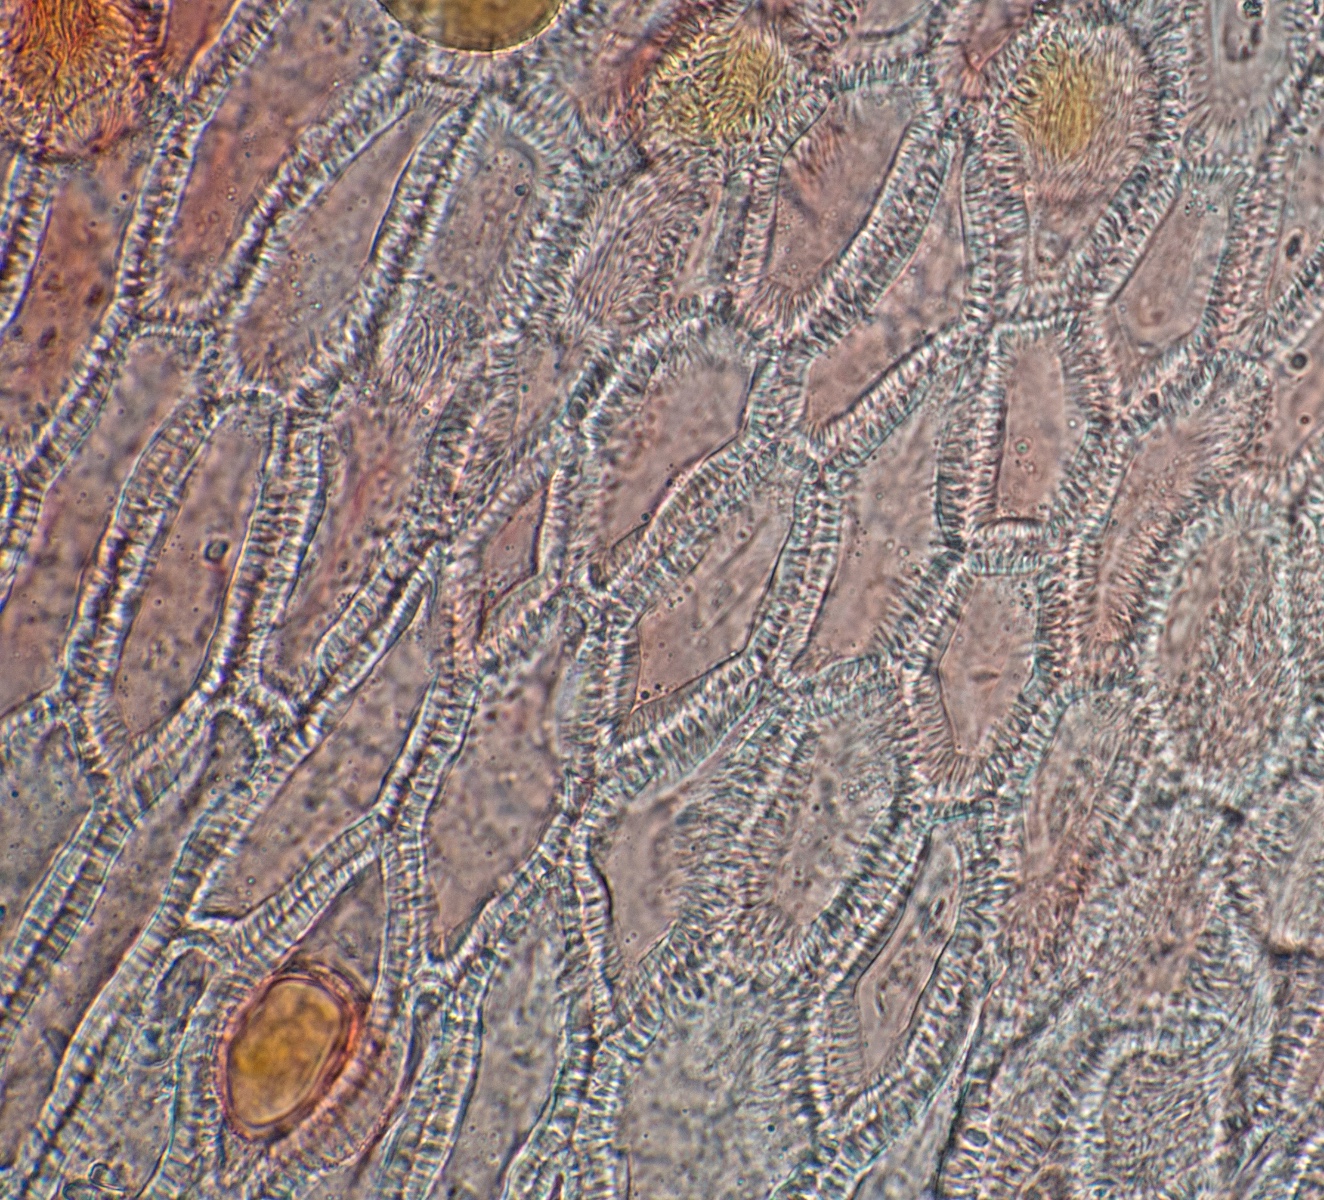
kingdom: Fungi
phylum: Basidiomycota
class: Pucciniomycetes
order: Pucciniales
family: Gymnosporangiaceae
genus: Gymnosporangium
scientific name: Gymnosporangium confusum
